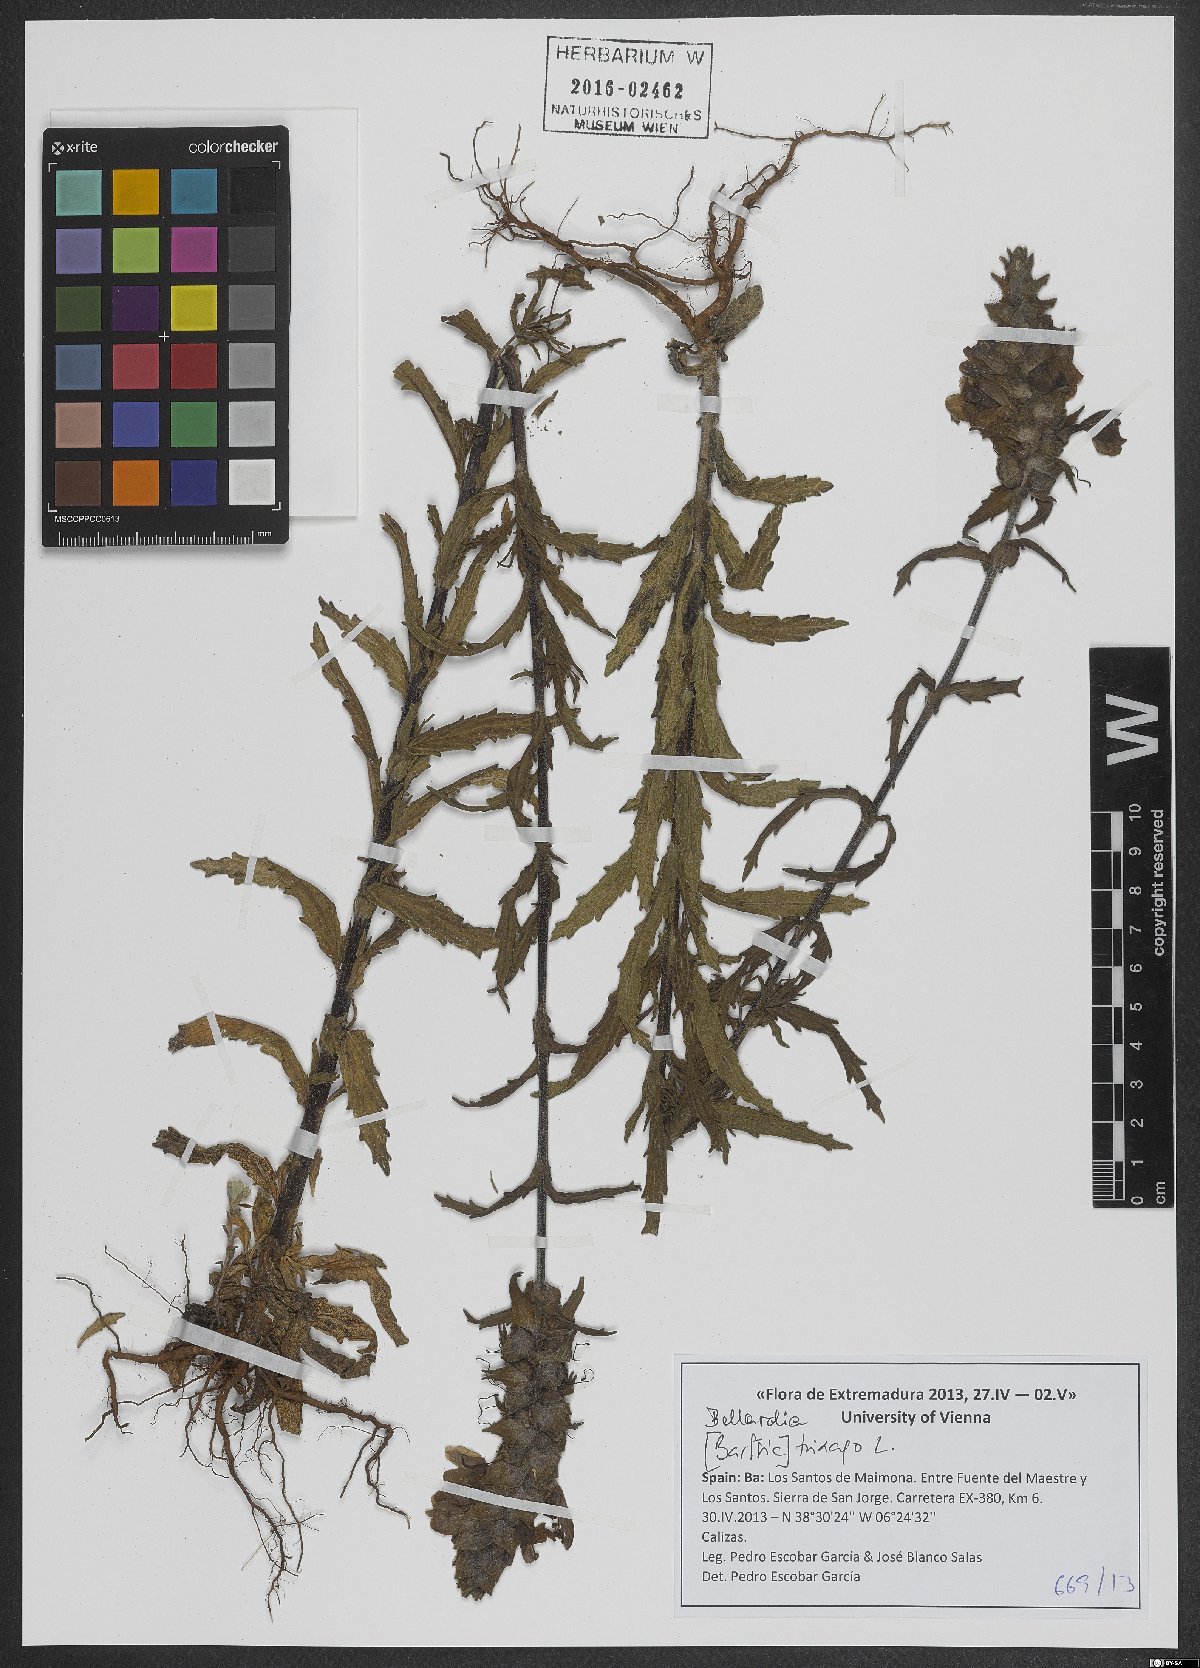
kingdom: Plantae
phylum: Tracheophyta
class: Magnoliopsida
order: Lamiales
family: Orobanchaceae
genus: Bellardia
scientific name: Bellardia trixago
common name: Mediterranean lineseed
